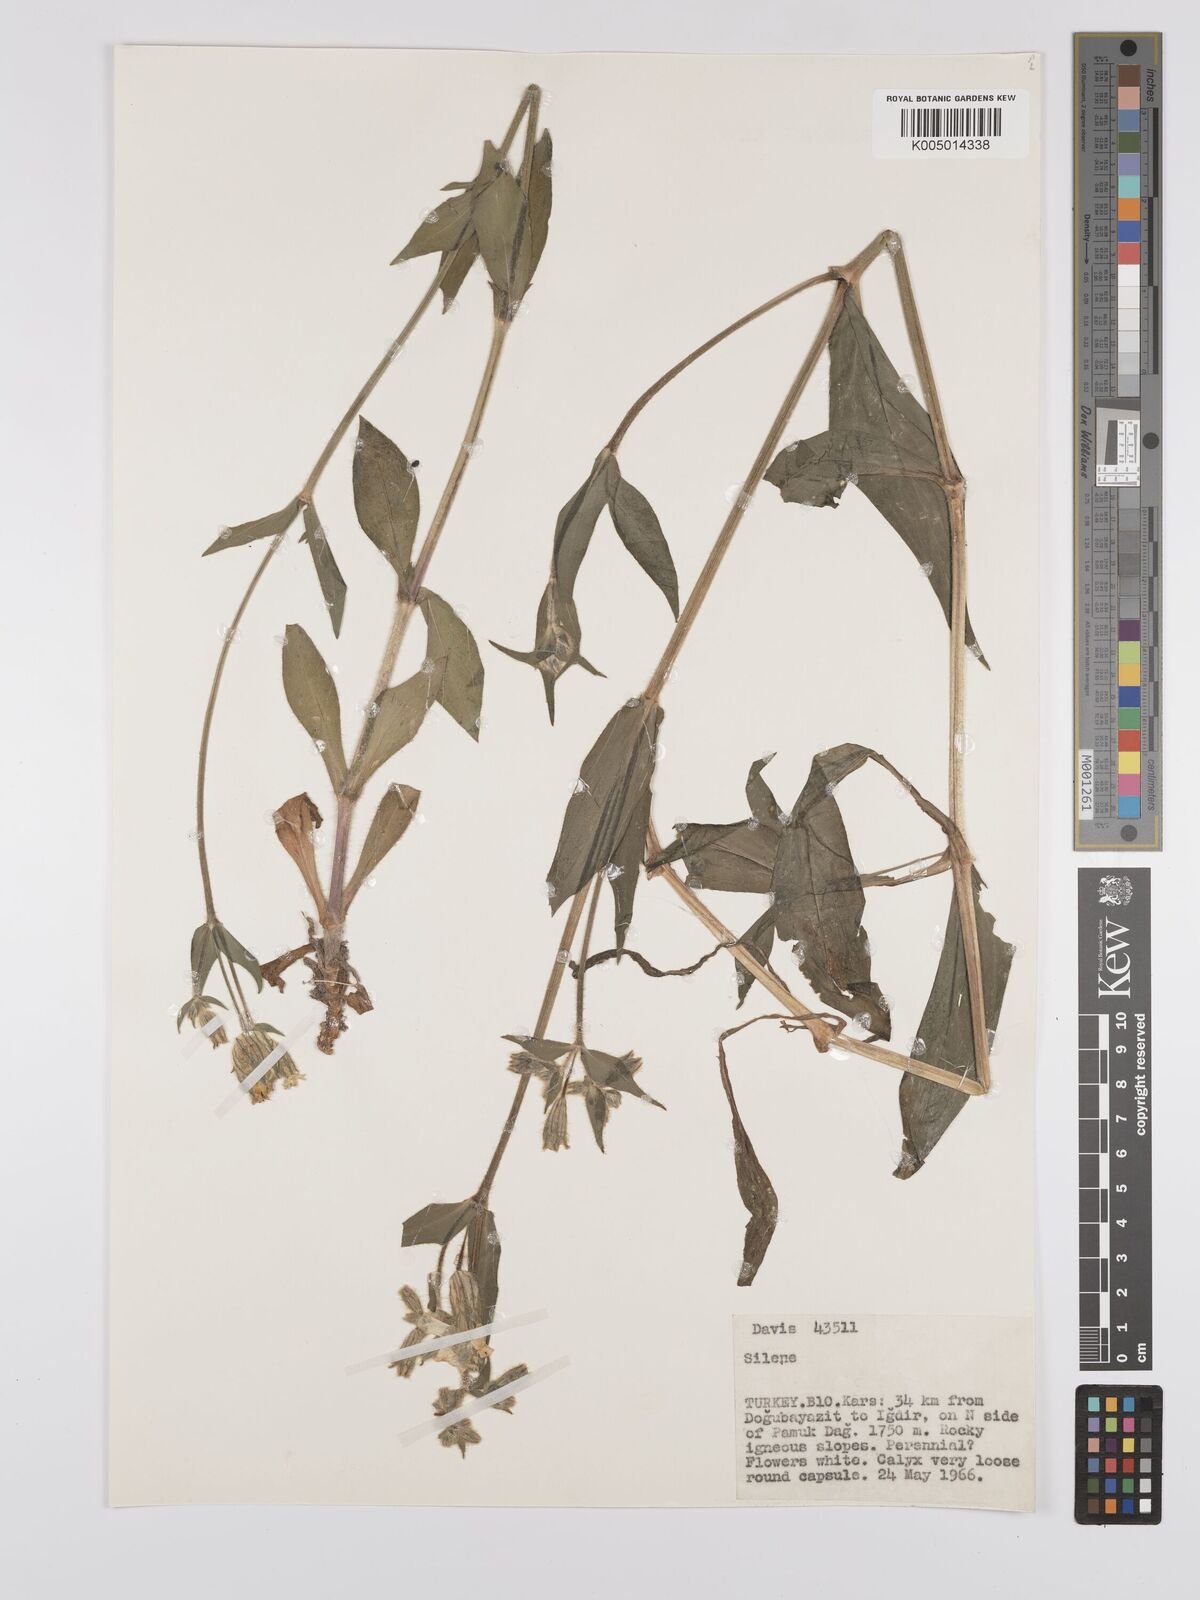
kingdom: Plantae
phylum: Tracheophyta
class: Magnoliopsida
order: Caryophyllales
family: Caryophyllaceae
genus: Silene
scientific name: Silene
